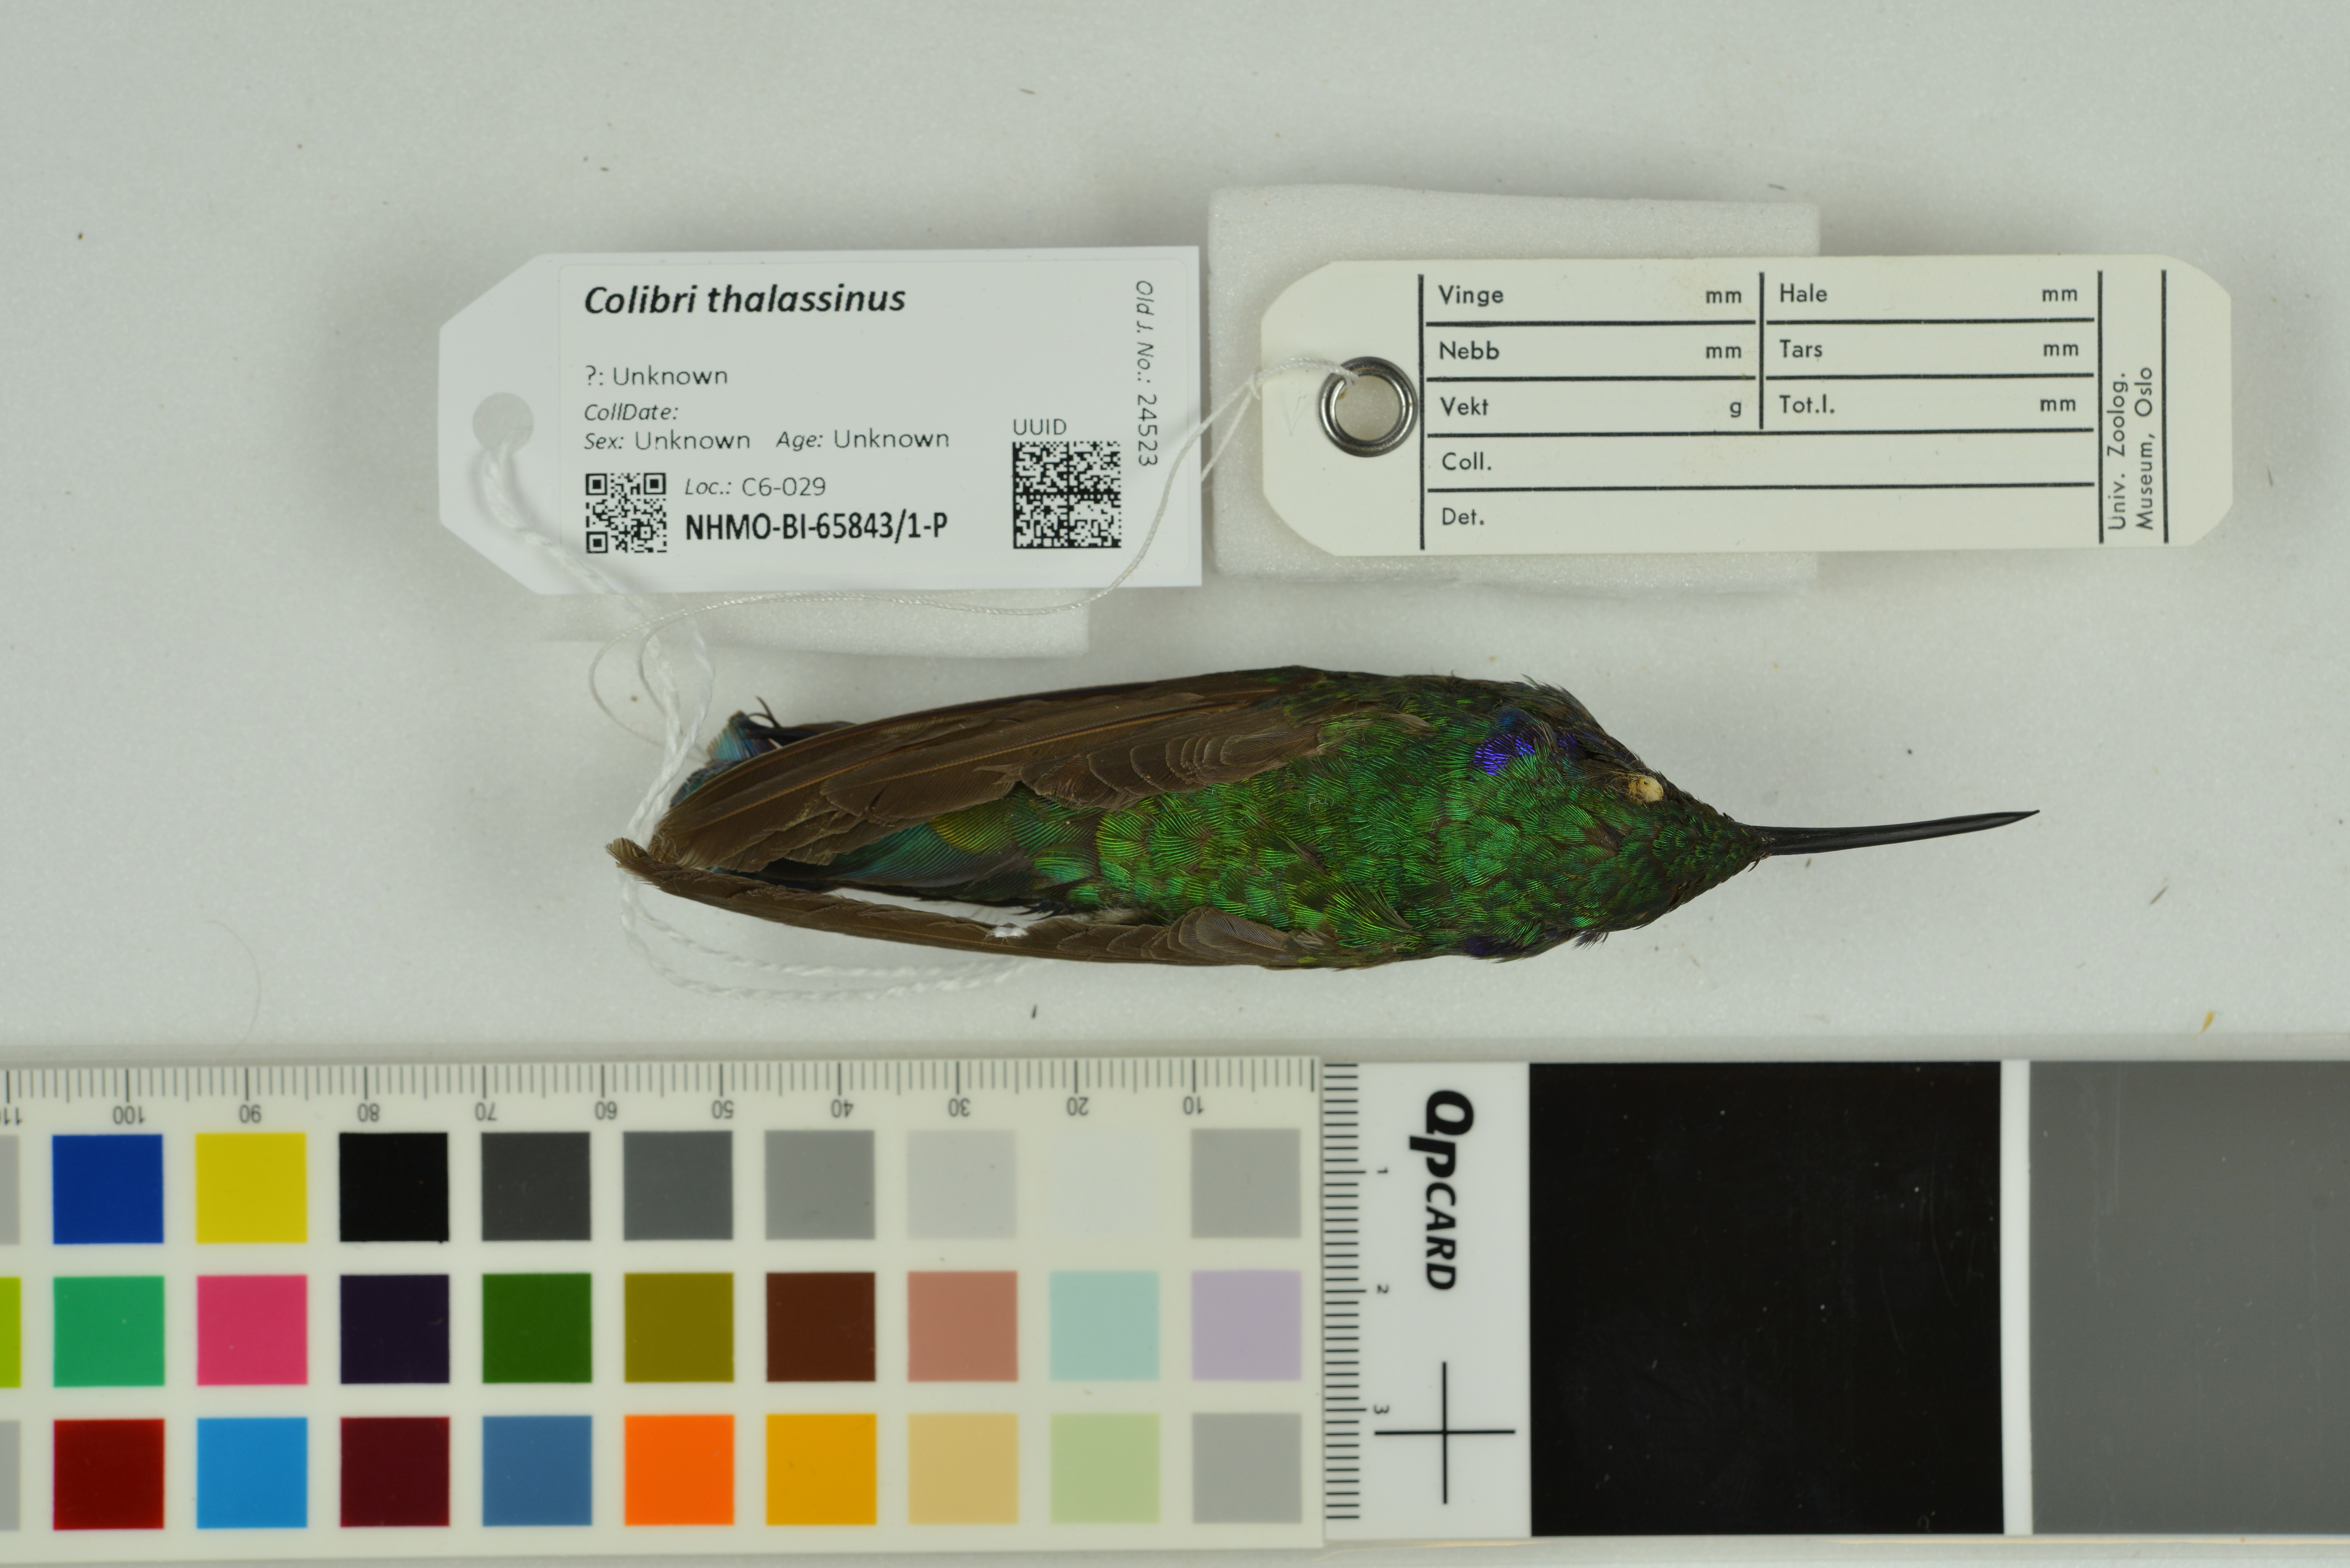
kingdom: Animalia
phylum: Chordata
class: Aves
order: Apodiformes
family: Trochilidae
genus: Colibri
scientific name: Colibri thalassinus
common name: Green violetear
